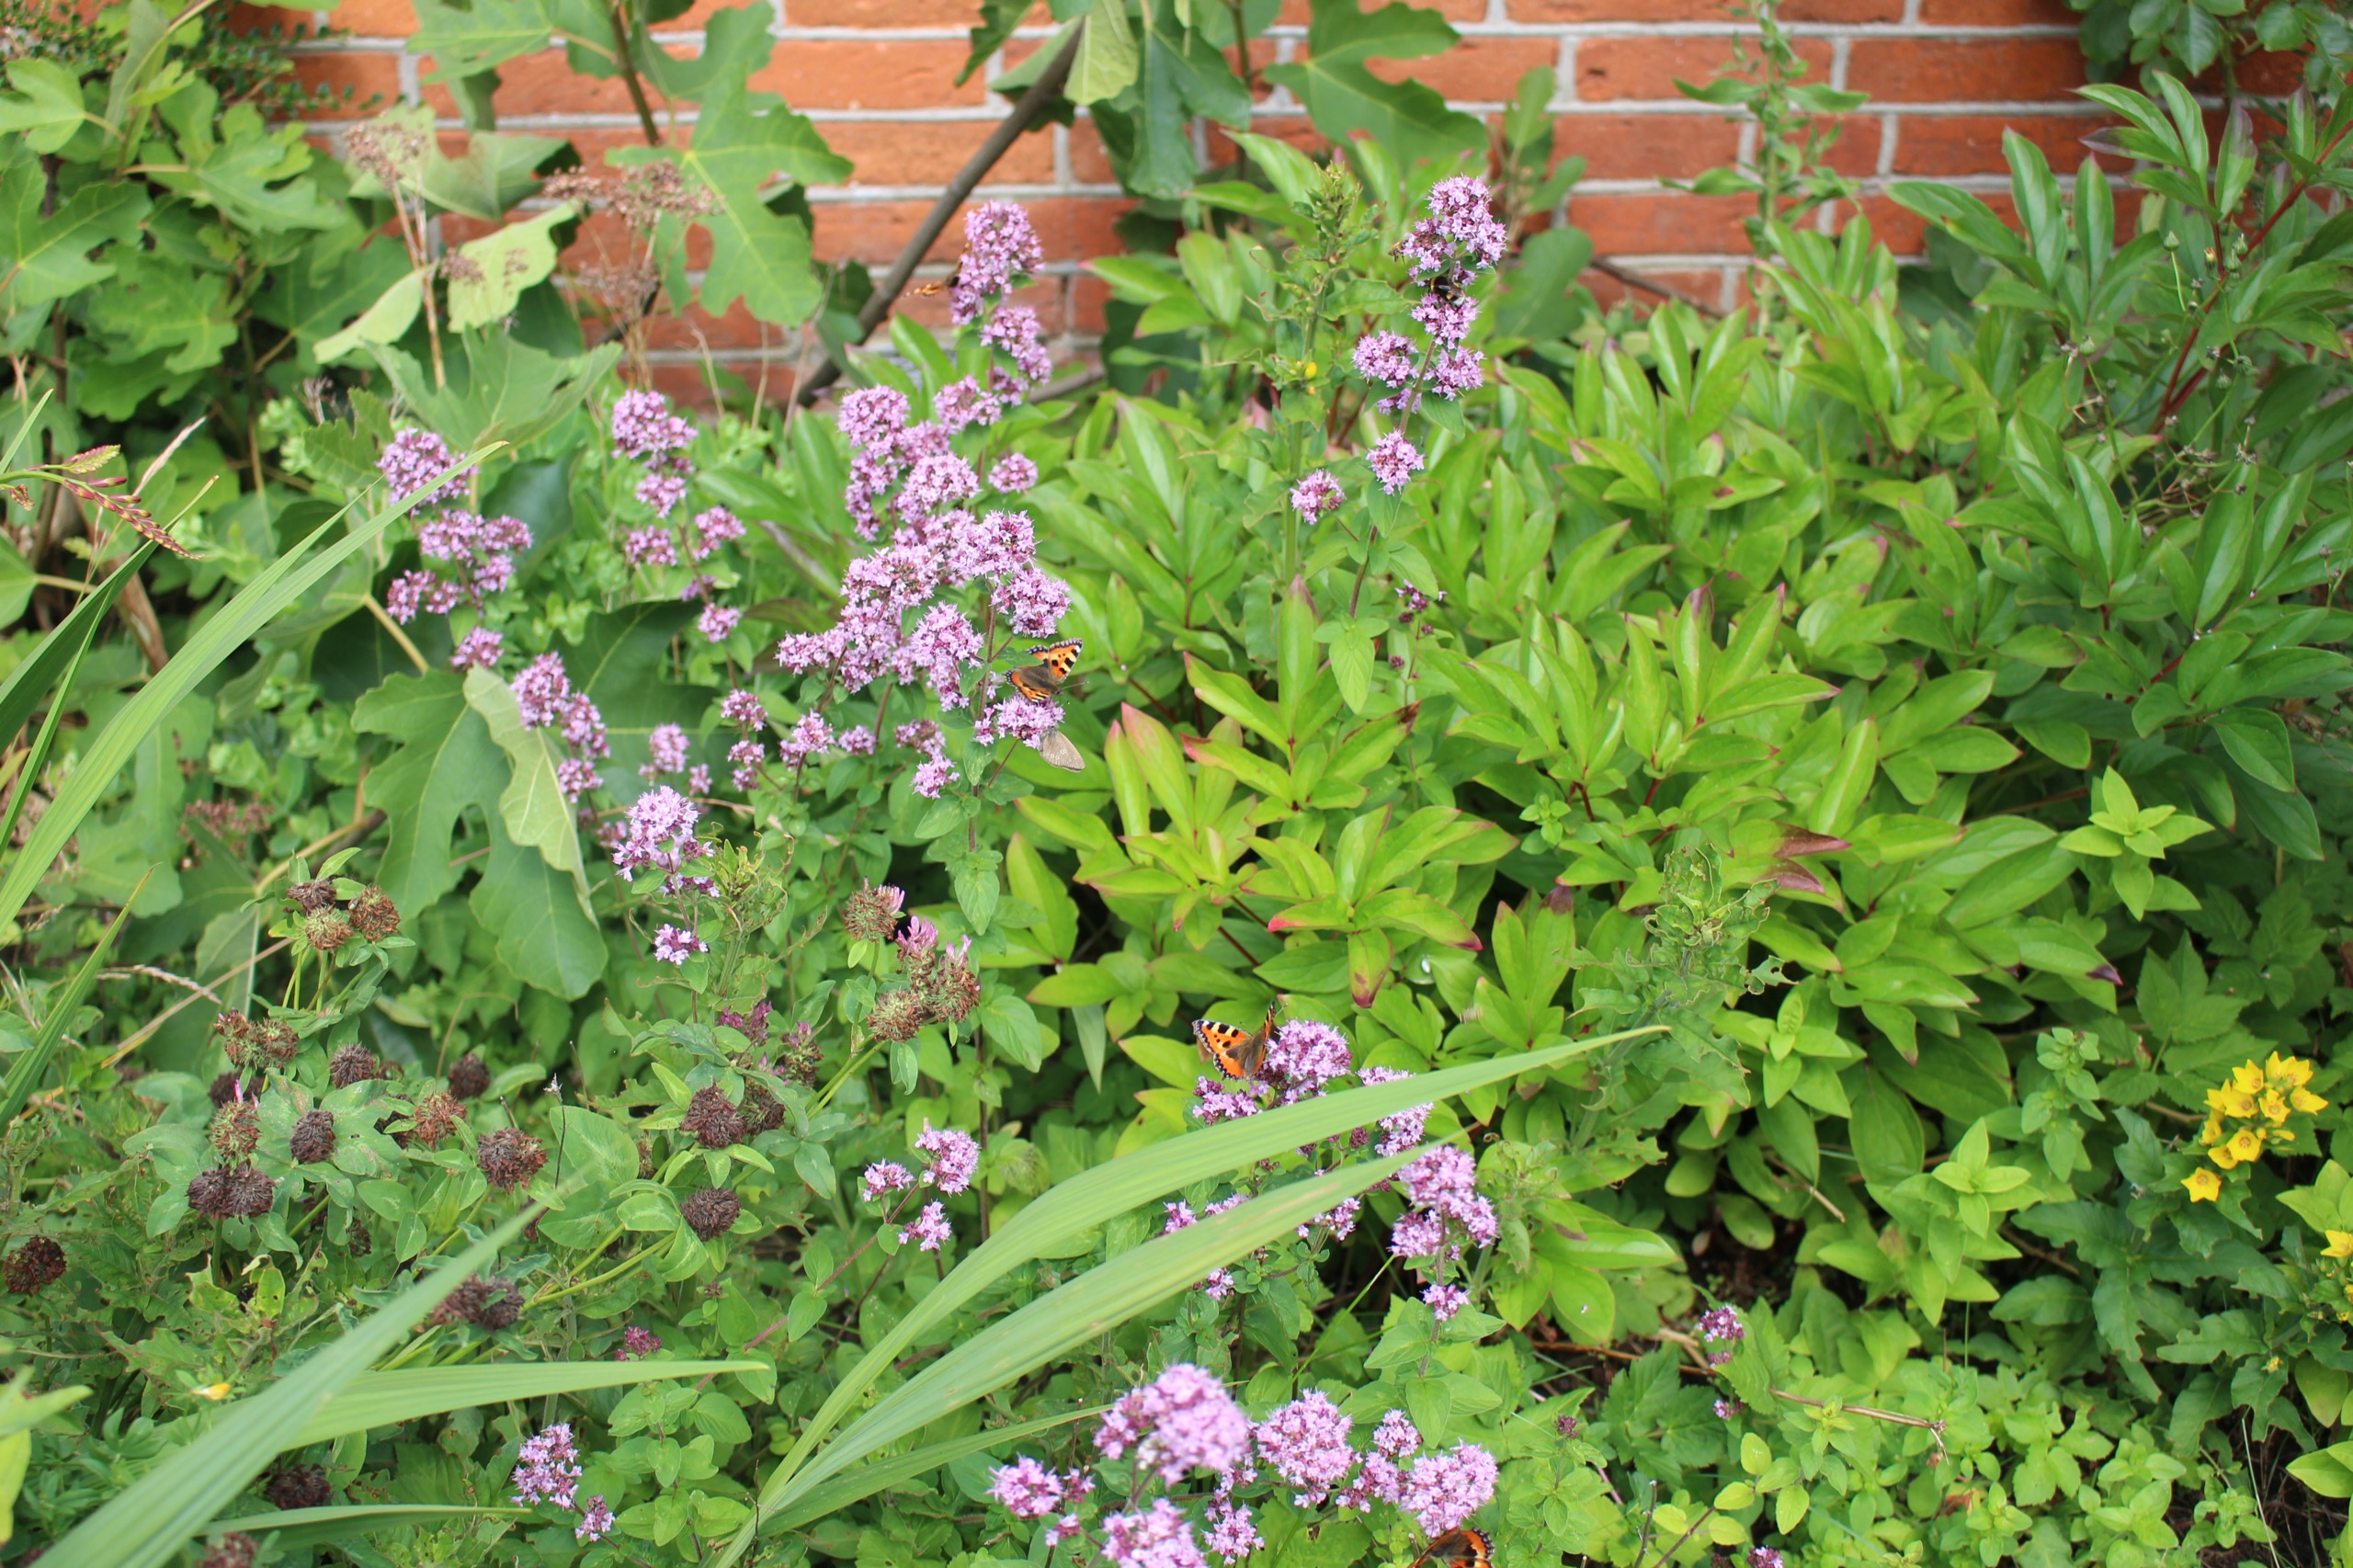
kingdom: Animalia
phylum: Arthropoda
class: Insecta
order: Lepidoptera
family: Nymphalidae
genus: Aglais
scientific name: Aglais urticae
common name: Nældens takvinge
